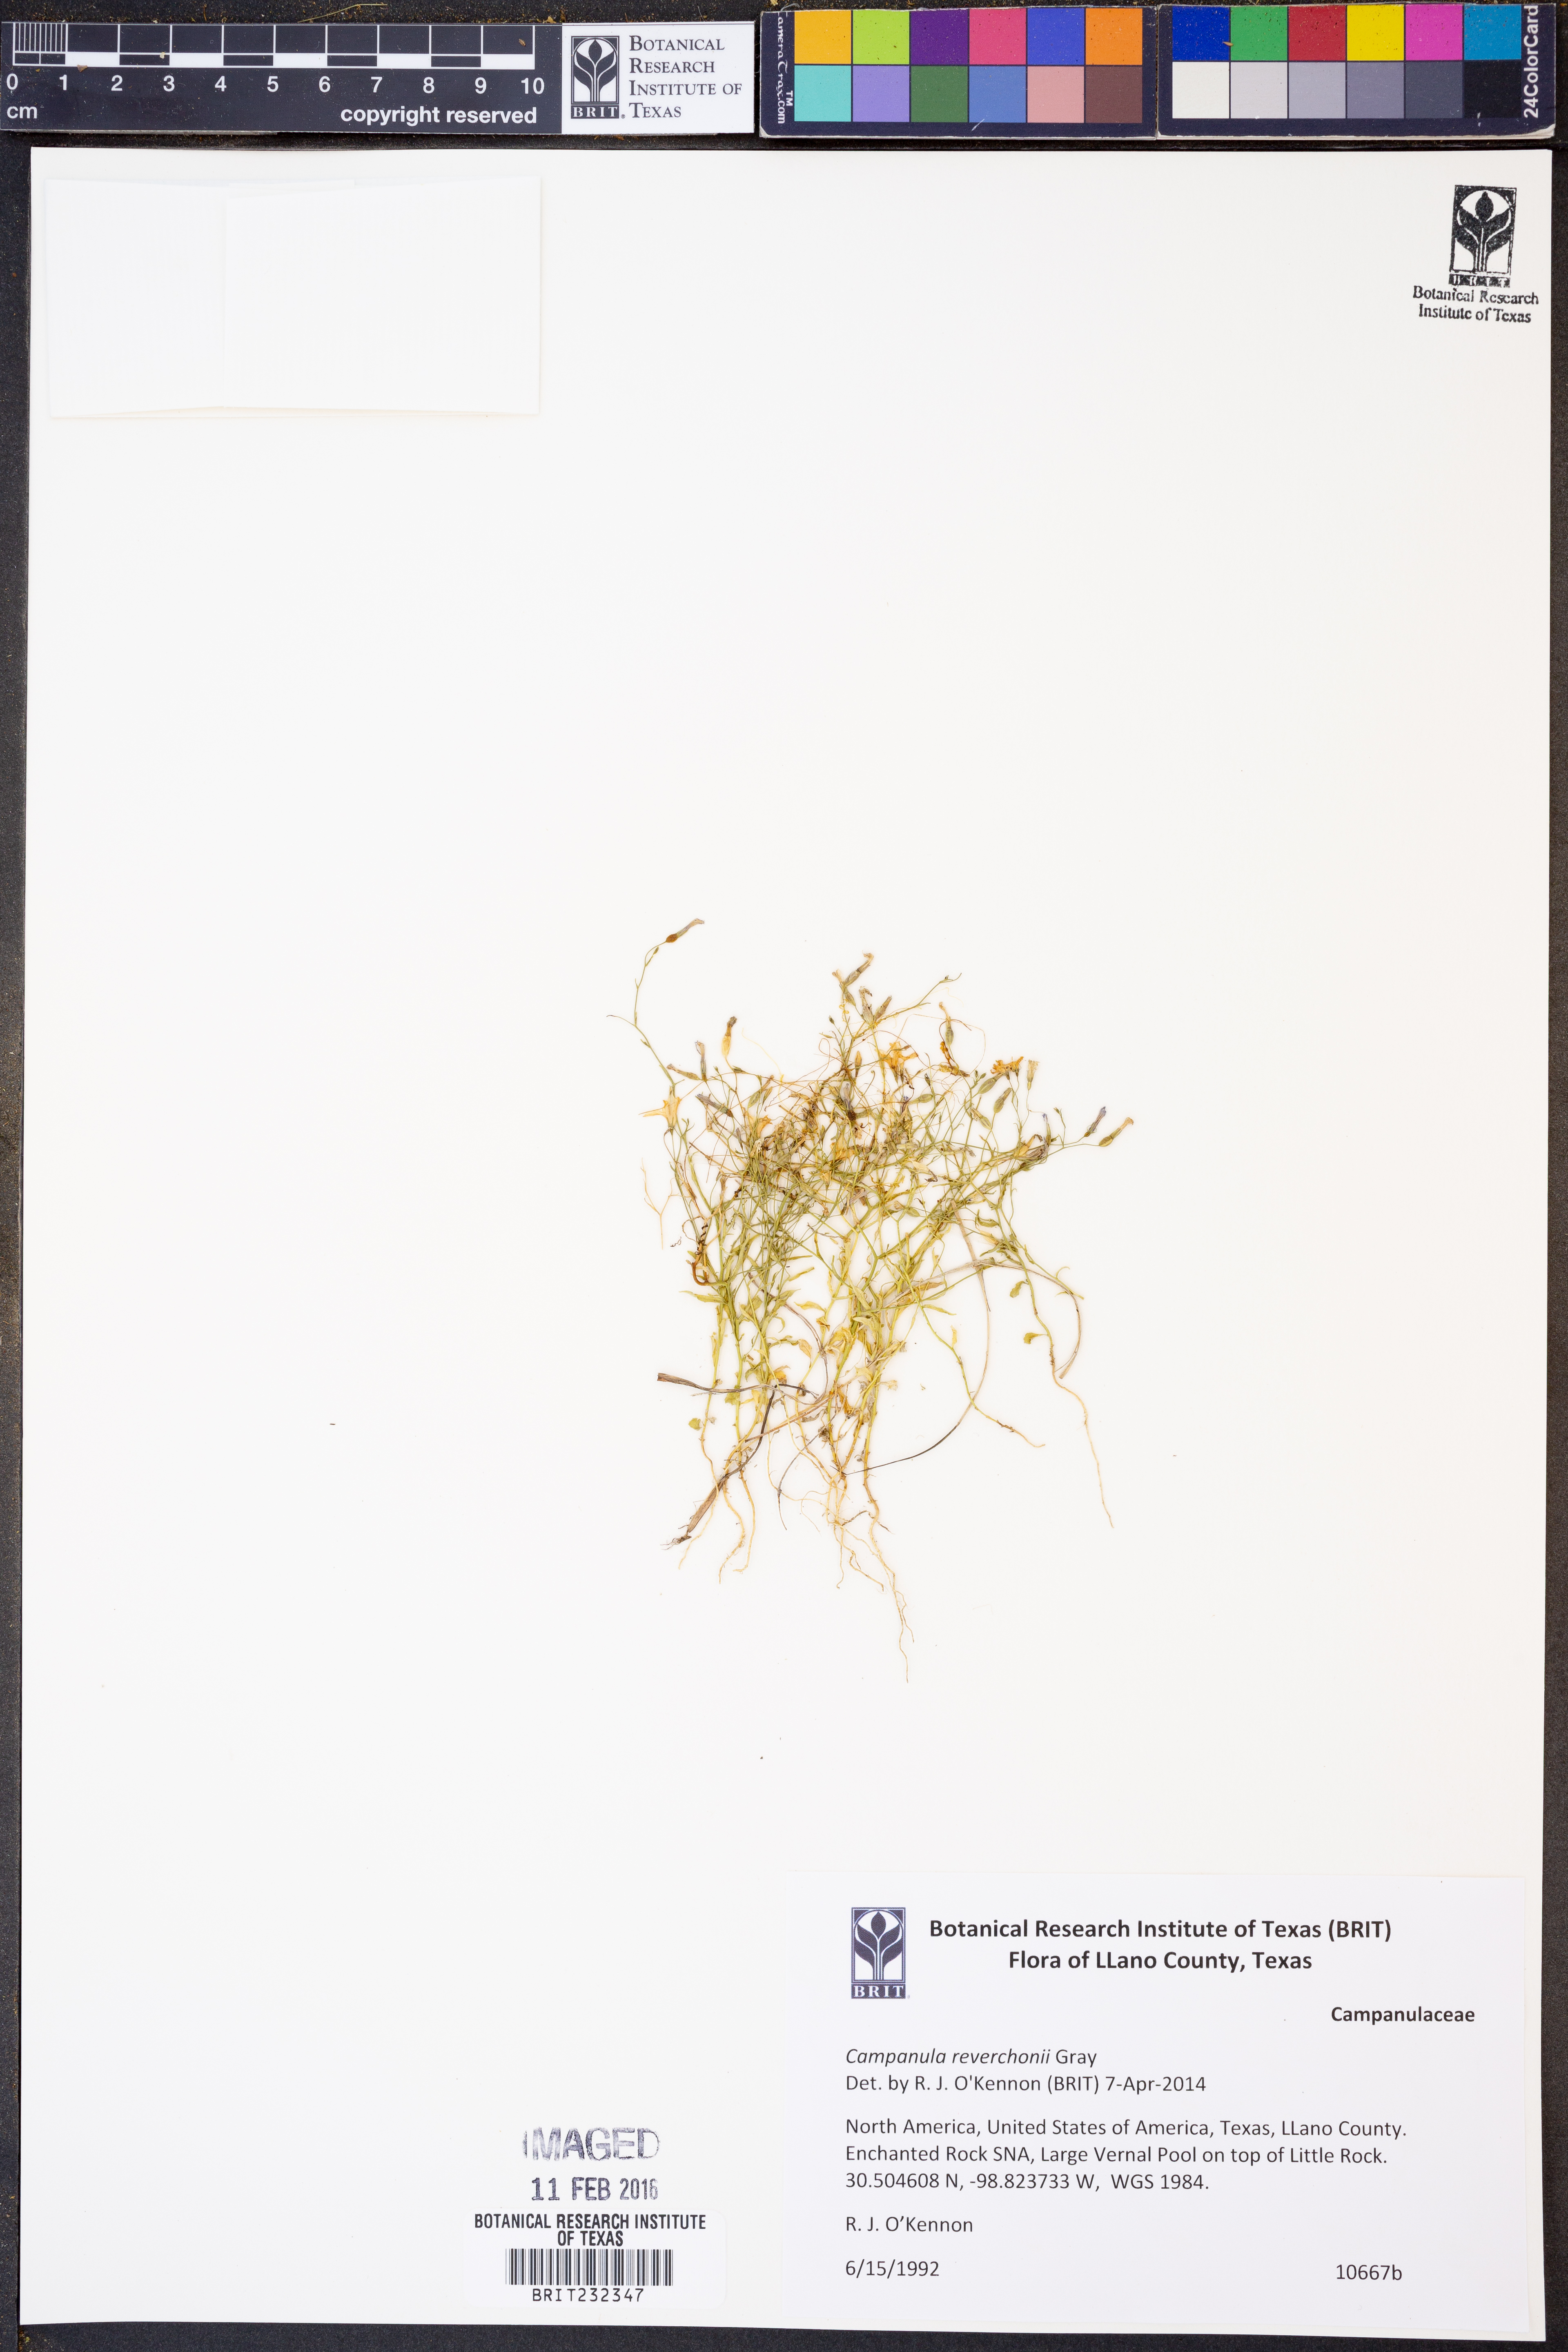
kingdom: Plantae
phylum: Tracheophyta
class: Magnoliopsida
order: Asterales
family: Campanulaceae
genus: Poolea
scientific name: Poolea reverchonii
